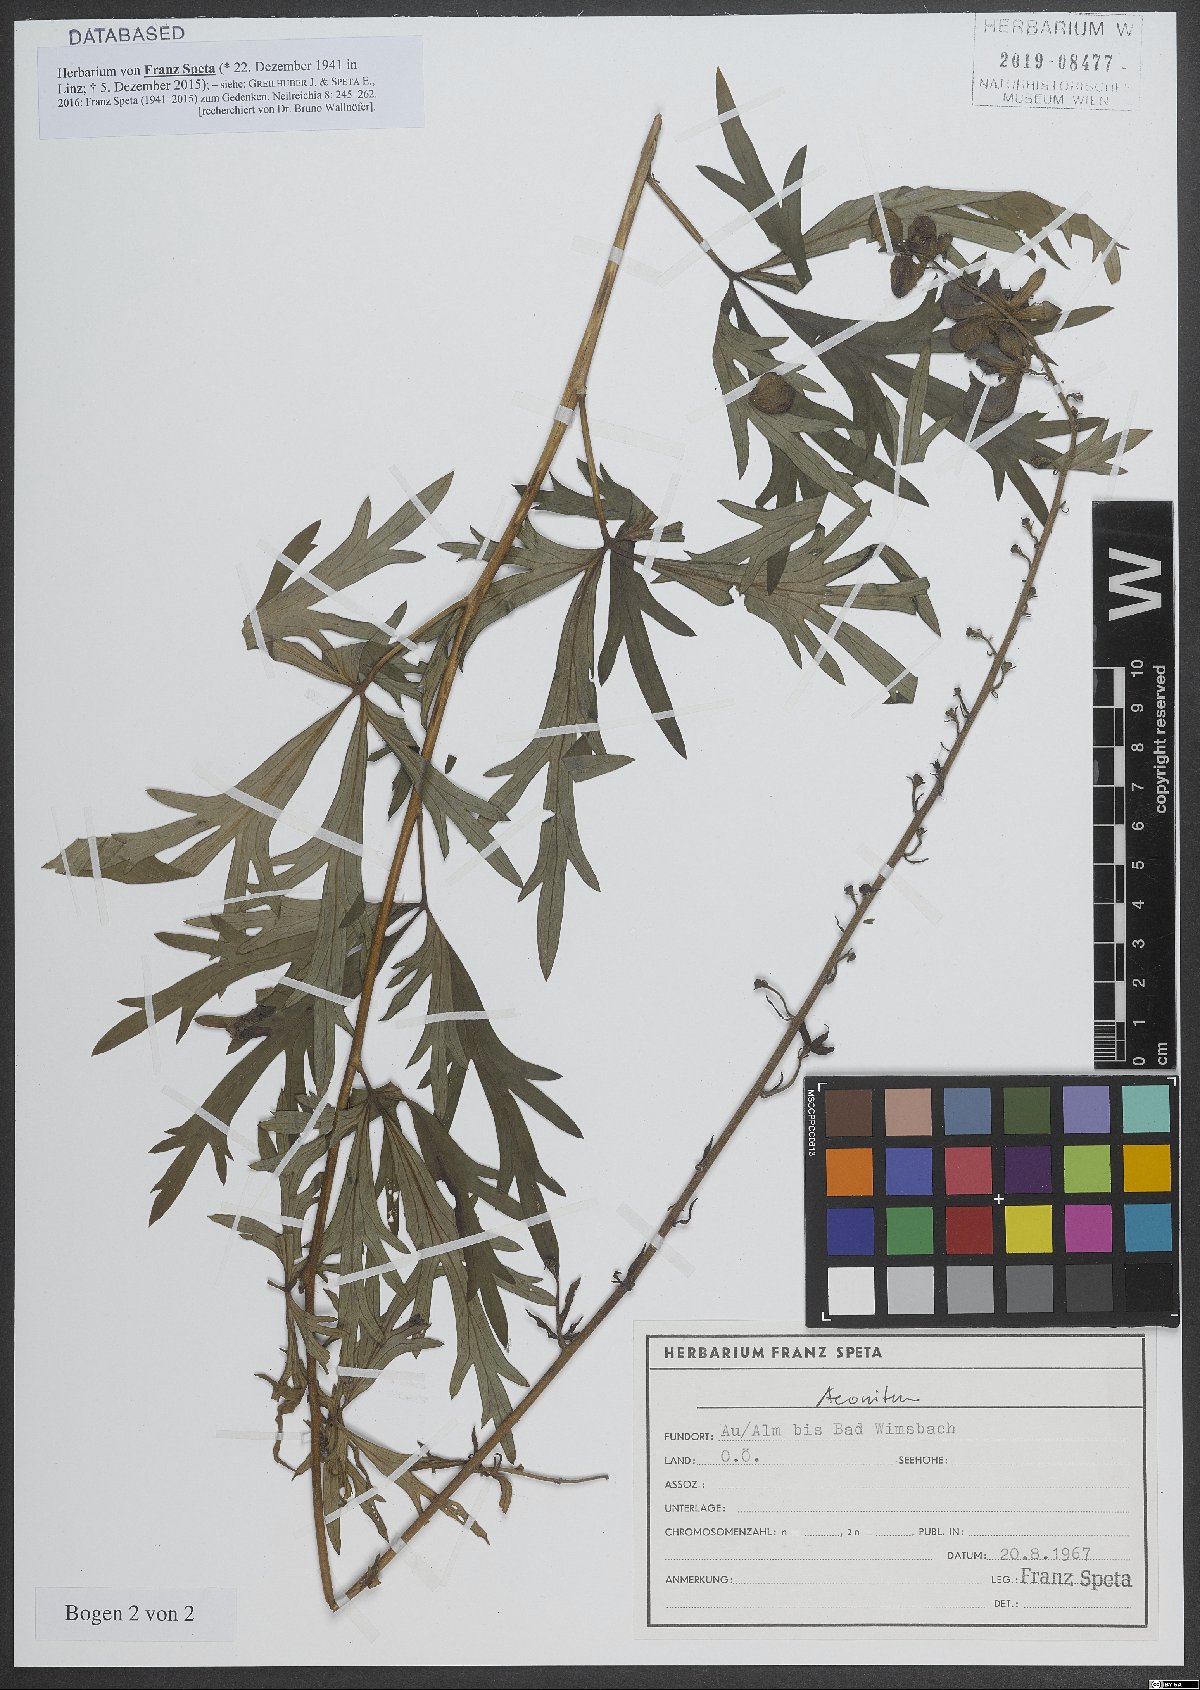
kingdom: Plantae
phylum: Tracheophyta
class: Magnoliopsida
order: Ranunculales
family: Ranunculaceae
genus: Aconitum
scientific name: Aconitum
